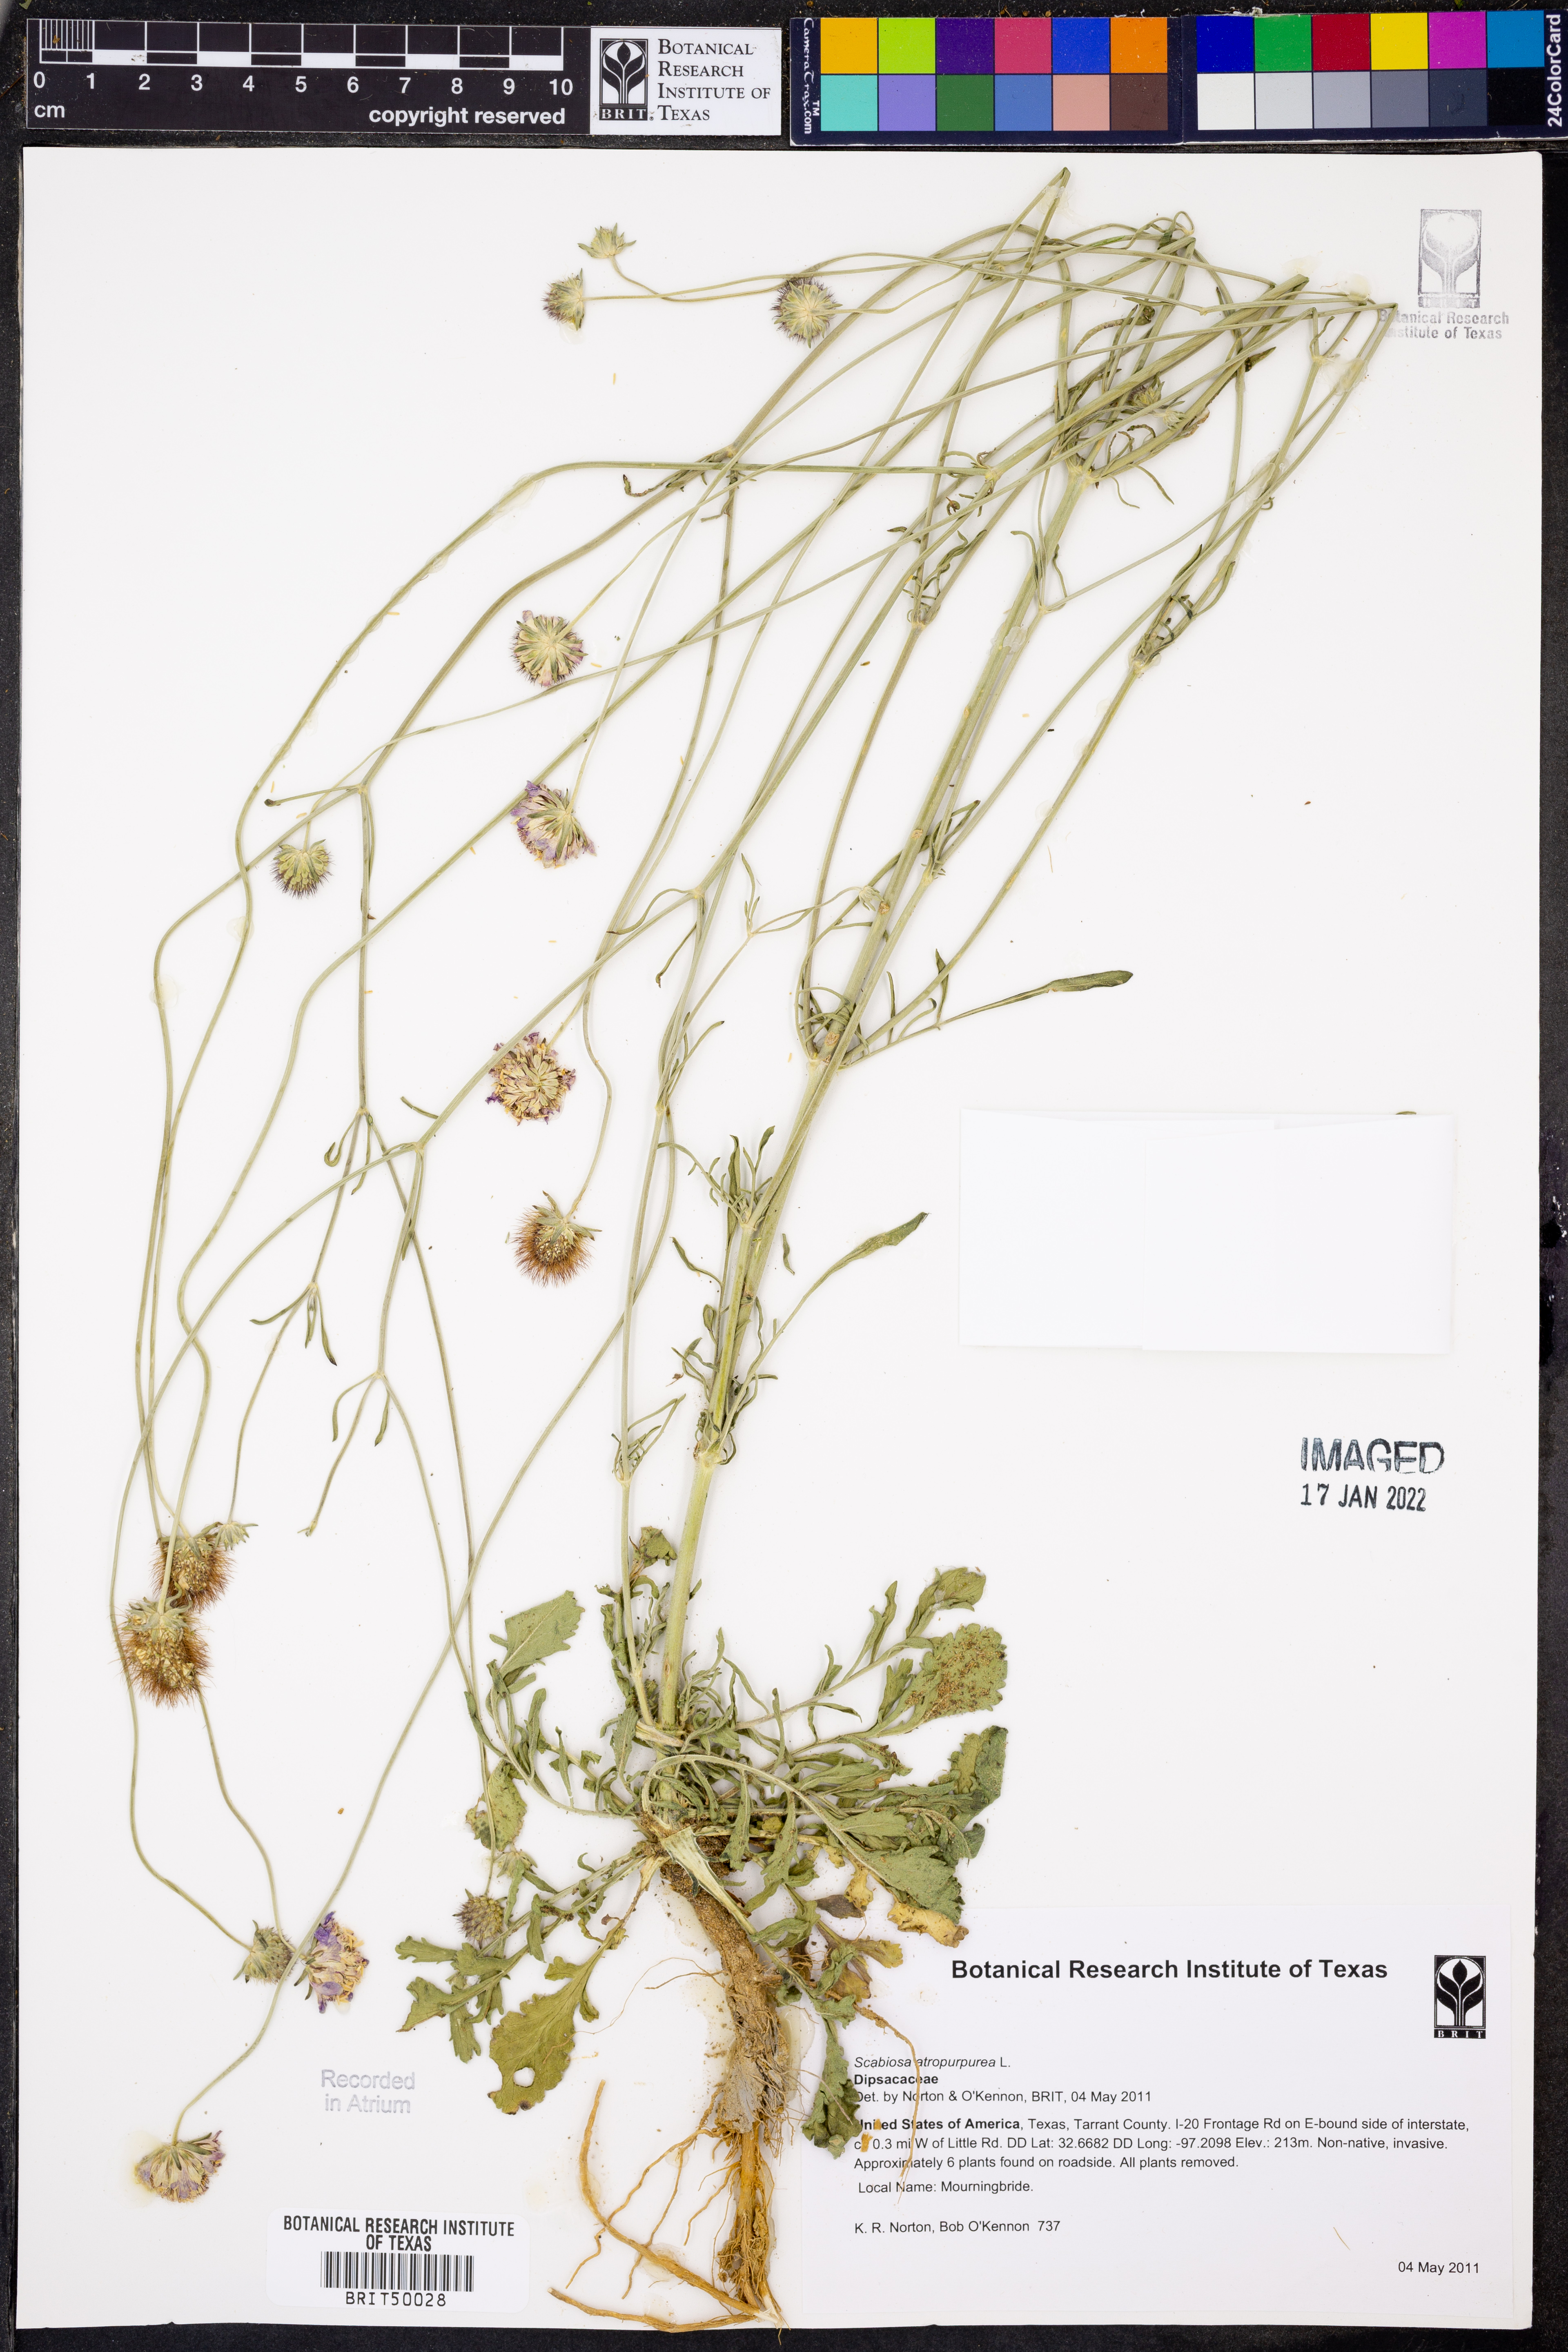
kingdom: Plantae
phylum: Tracheophyta
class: Magnoliopsida
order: Dipsacales
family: Caprifoliaceae
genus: Sixalix
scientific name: Sixalix atropurpurea
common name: Sweet scabious
